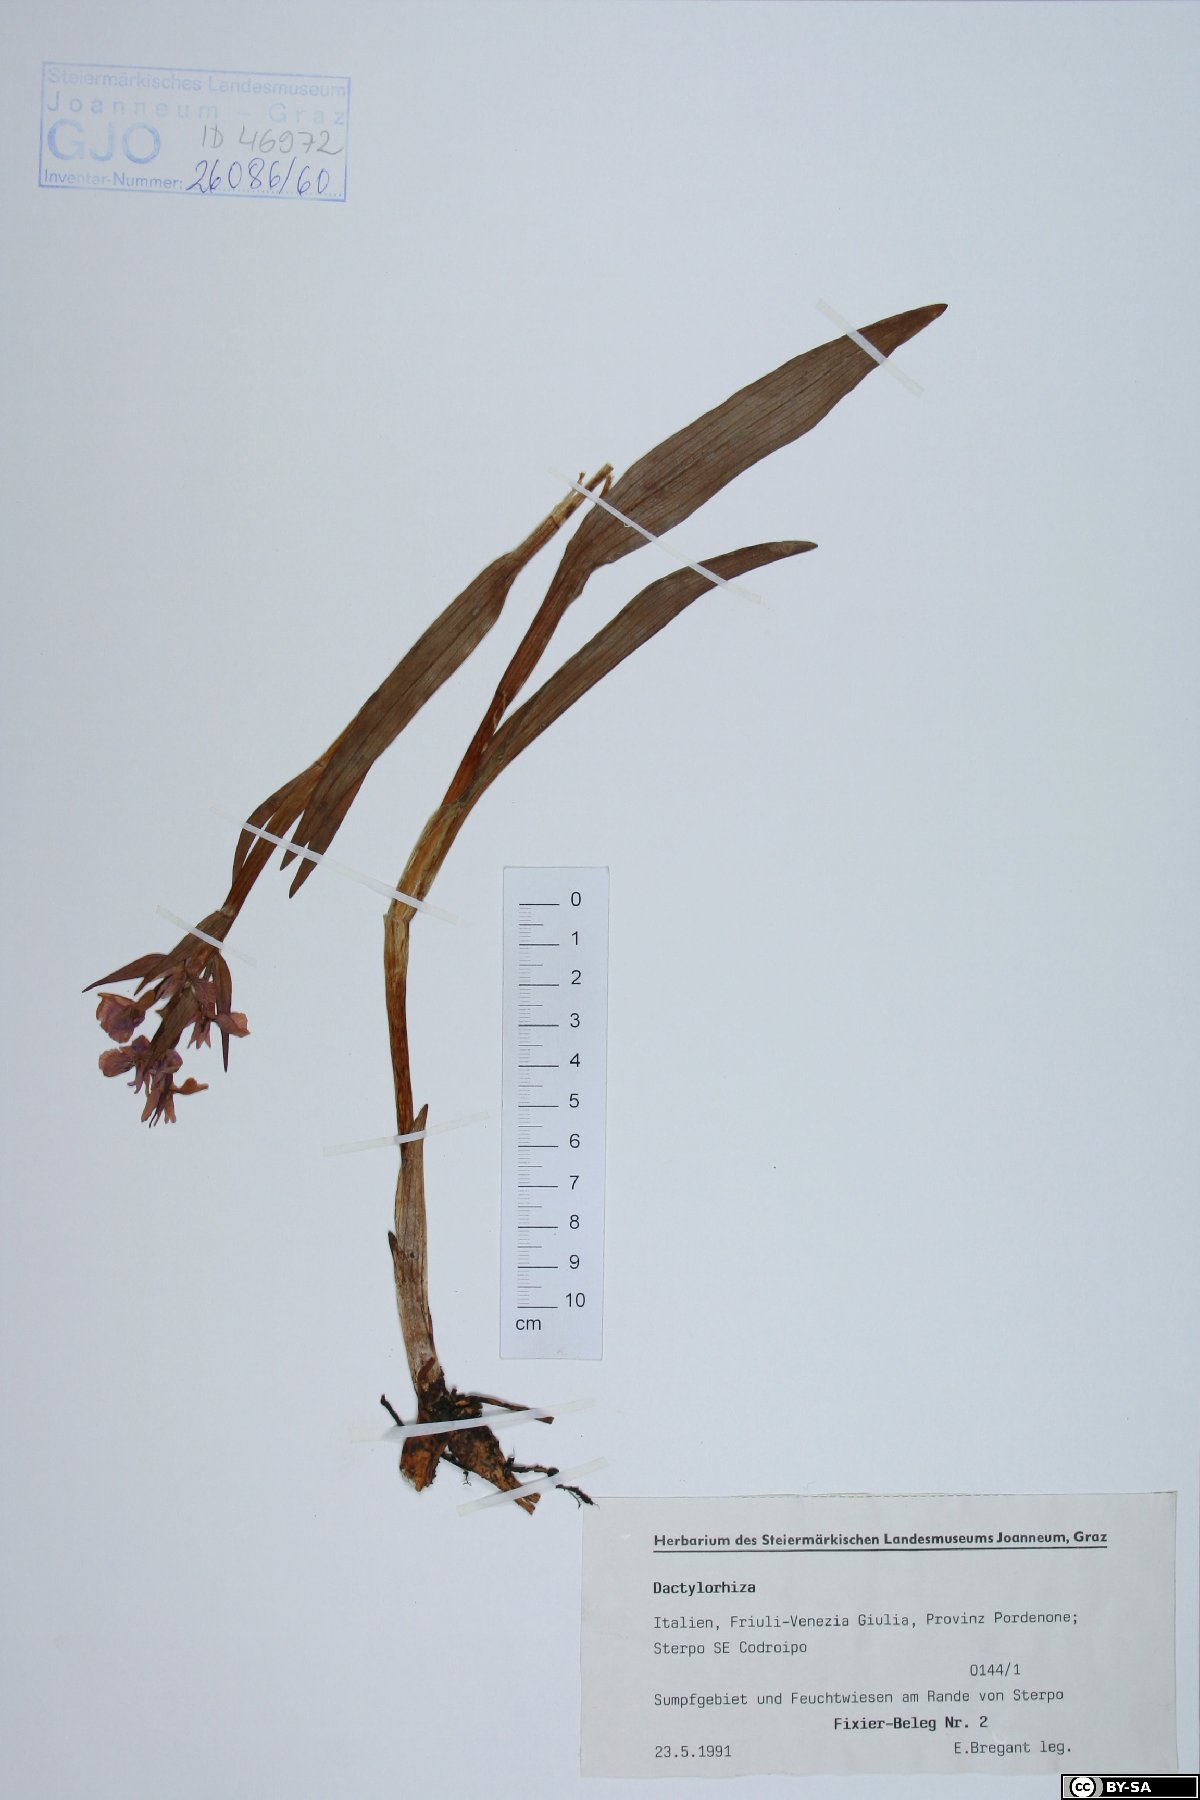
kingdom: Plantae
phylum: Tracheophyta
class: Liliopsida
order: Asparagales
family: Orchidaceae
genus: Dactylorhiza
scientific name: Dactylorhiza
